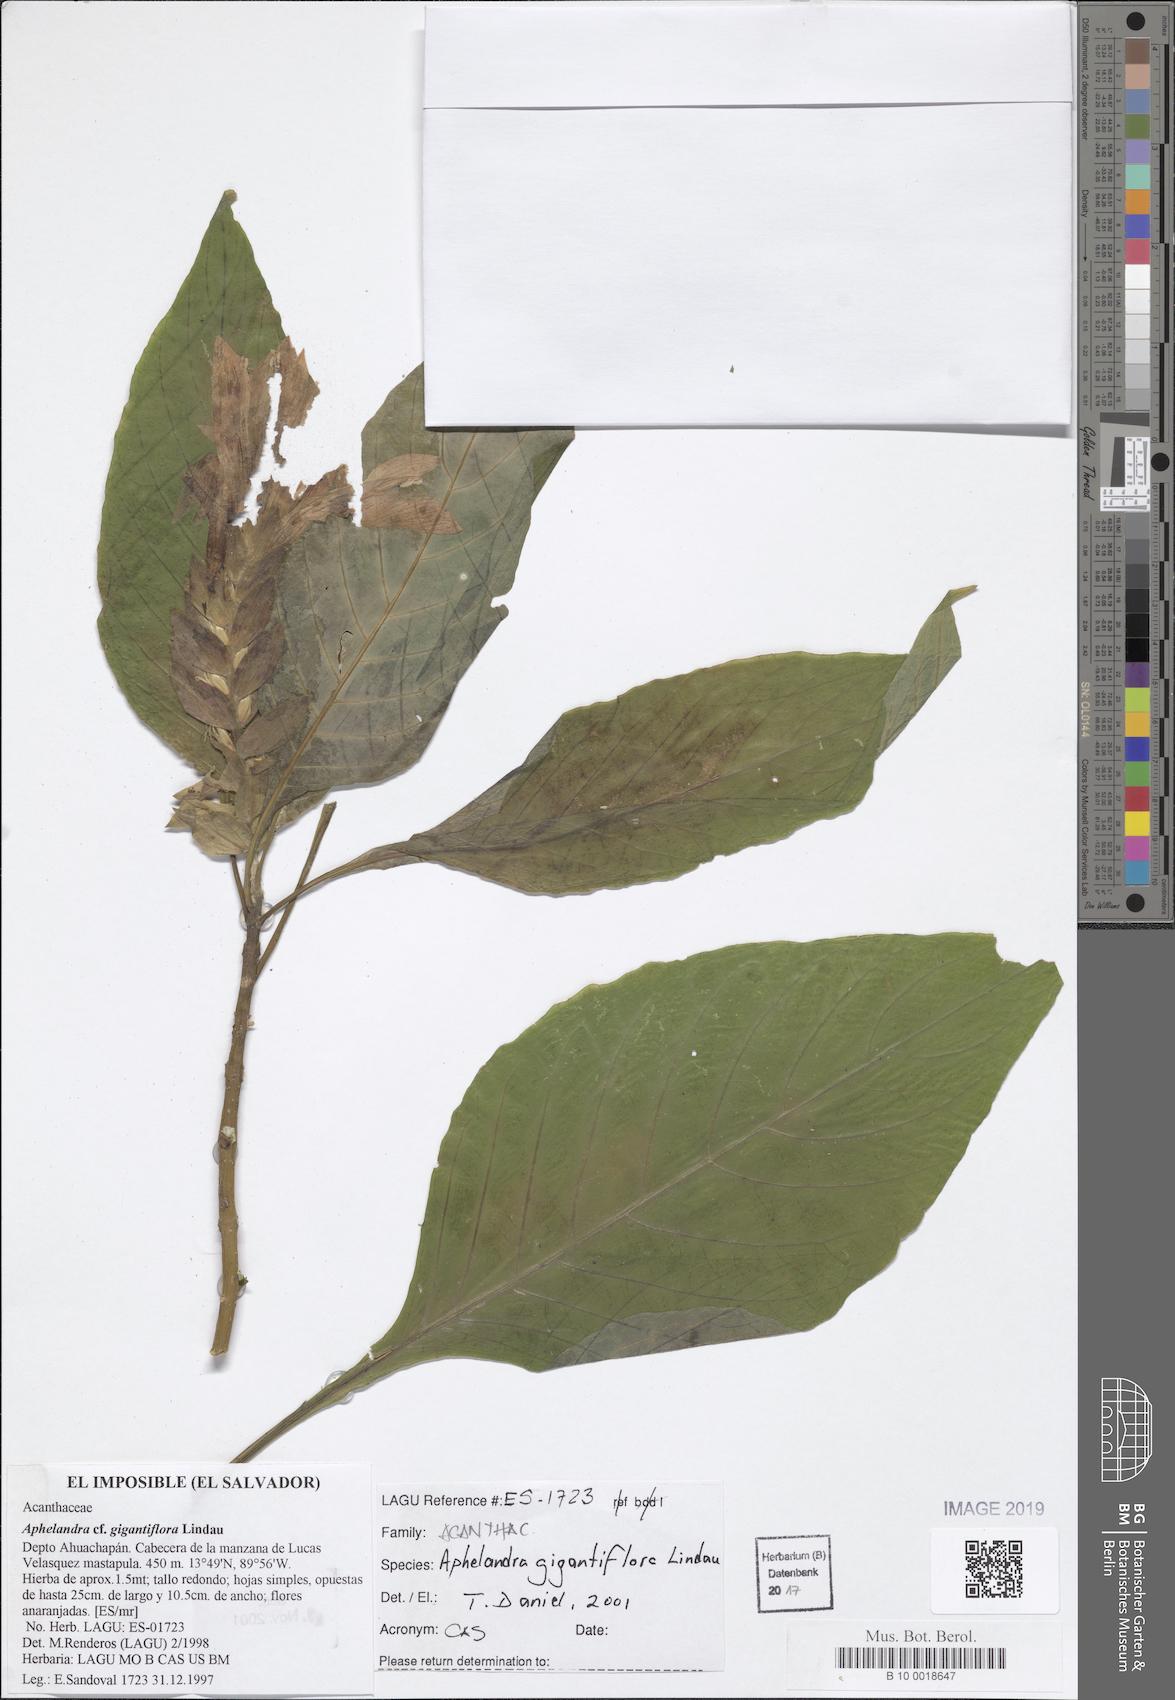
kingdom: Plantae
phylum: Tracheophyta
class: Magnoliopsida
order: Lamiales
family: Acanthaceae
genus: Aphelandra
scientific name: Aphelandra gigantiflora
